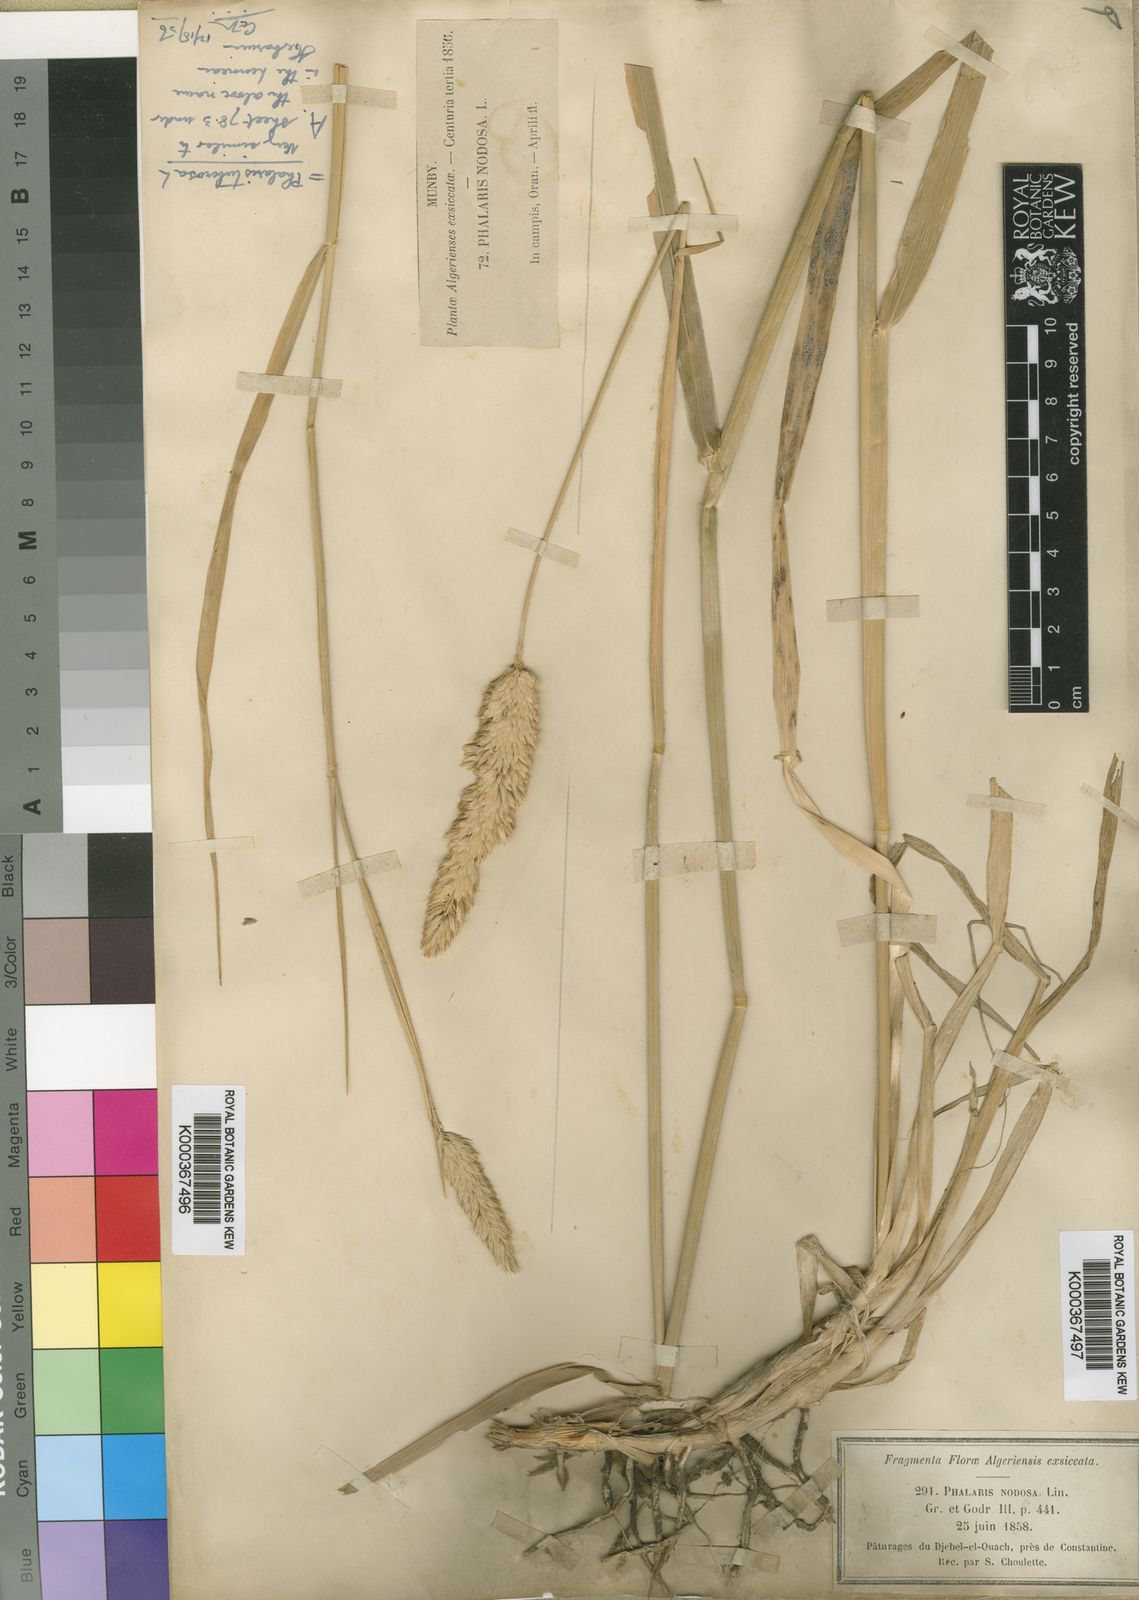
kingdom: Plantae
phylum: Tracheophyta
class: Liliopsida
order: Poales
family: Poaceae
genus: Phalaris
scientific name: Phalaris aquatica
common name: Bulbous canary-grass
